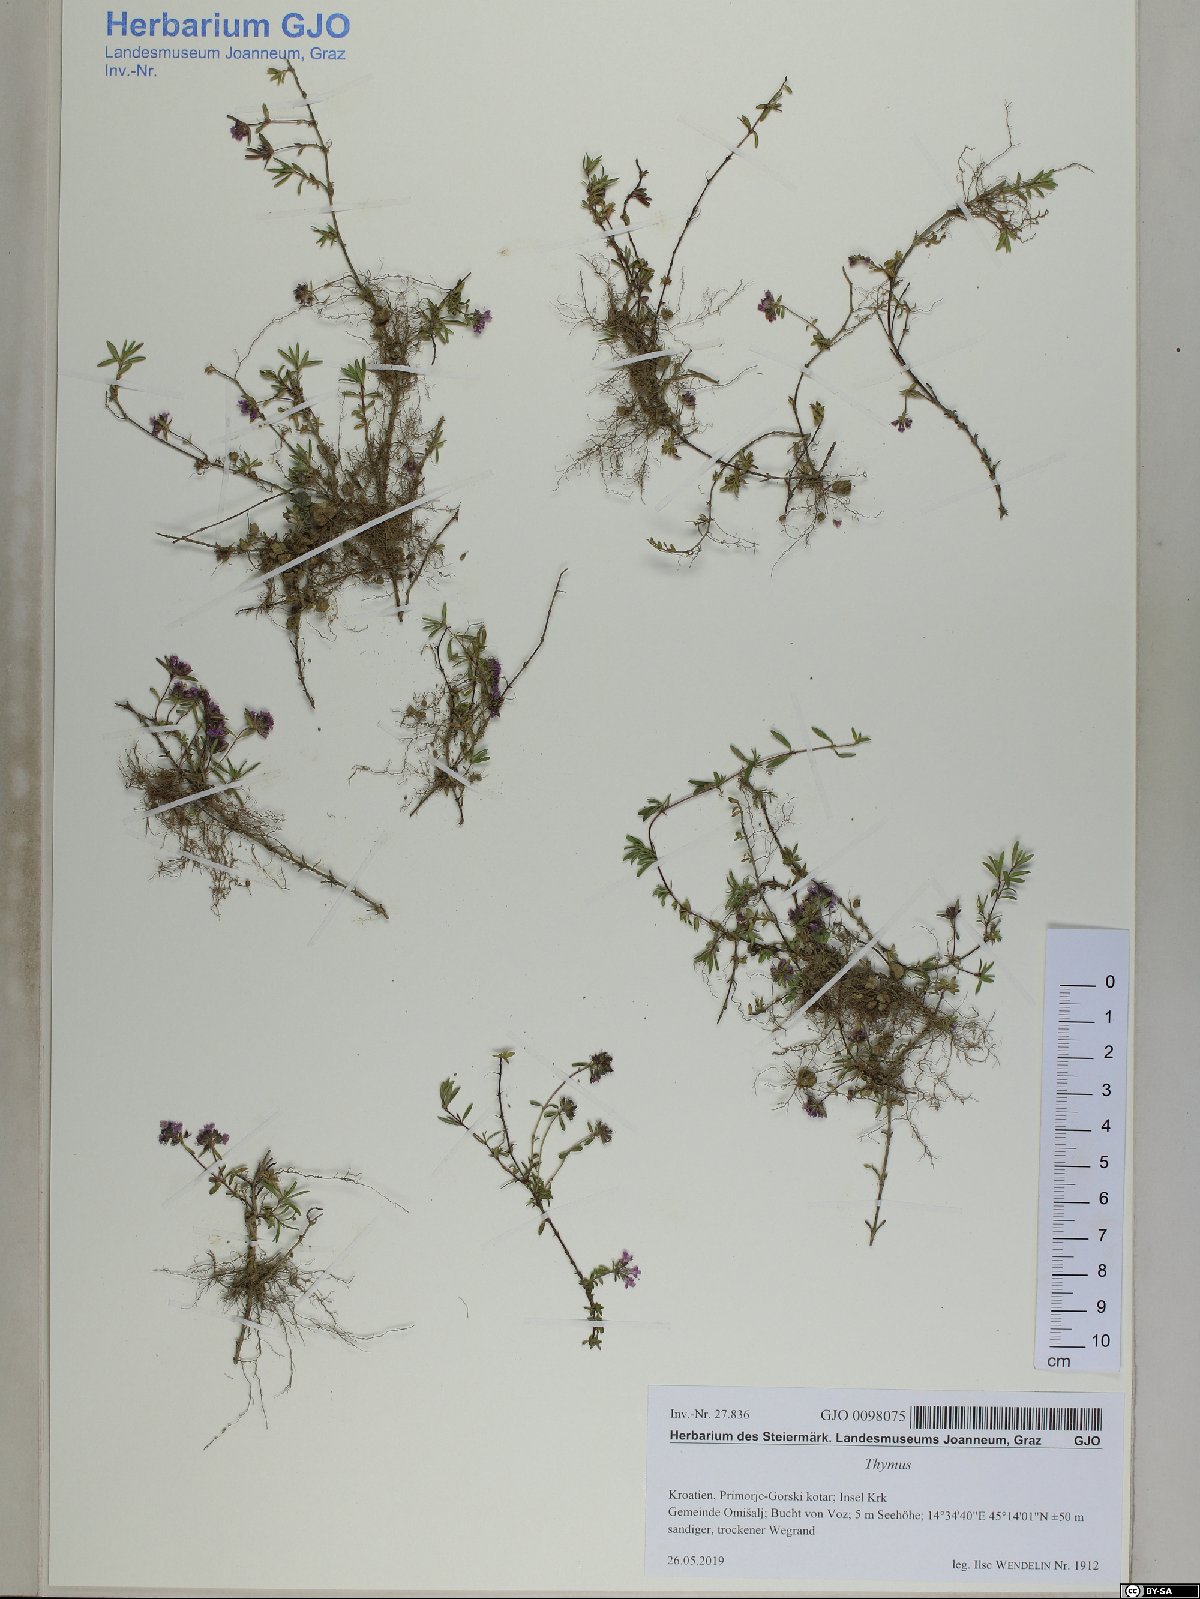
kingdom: Plantae
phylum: Tracheophyta
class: Magnoliopsida
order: Lamiales
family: Lamiaceae
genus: Thymus
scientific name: Thymus longicaulis
